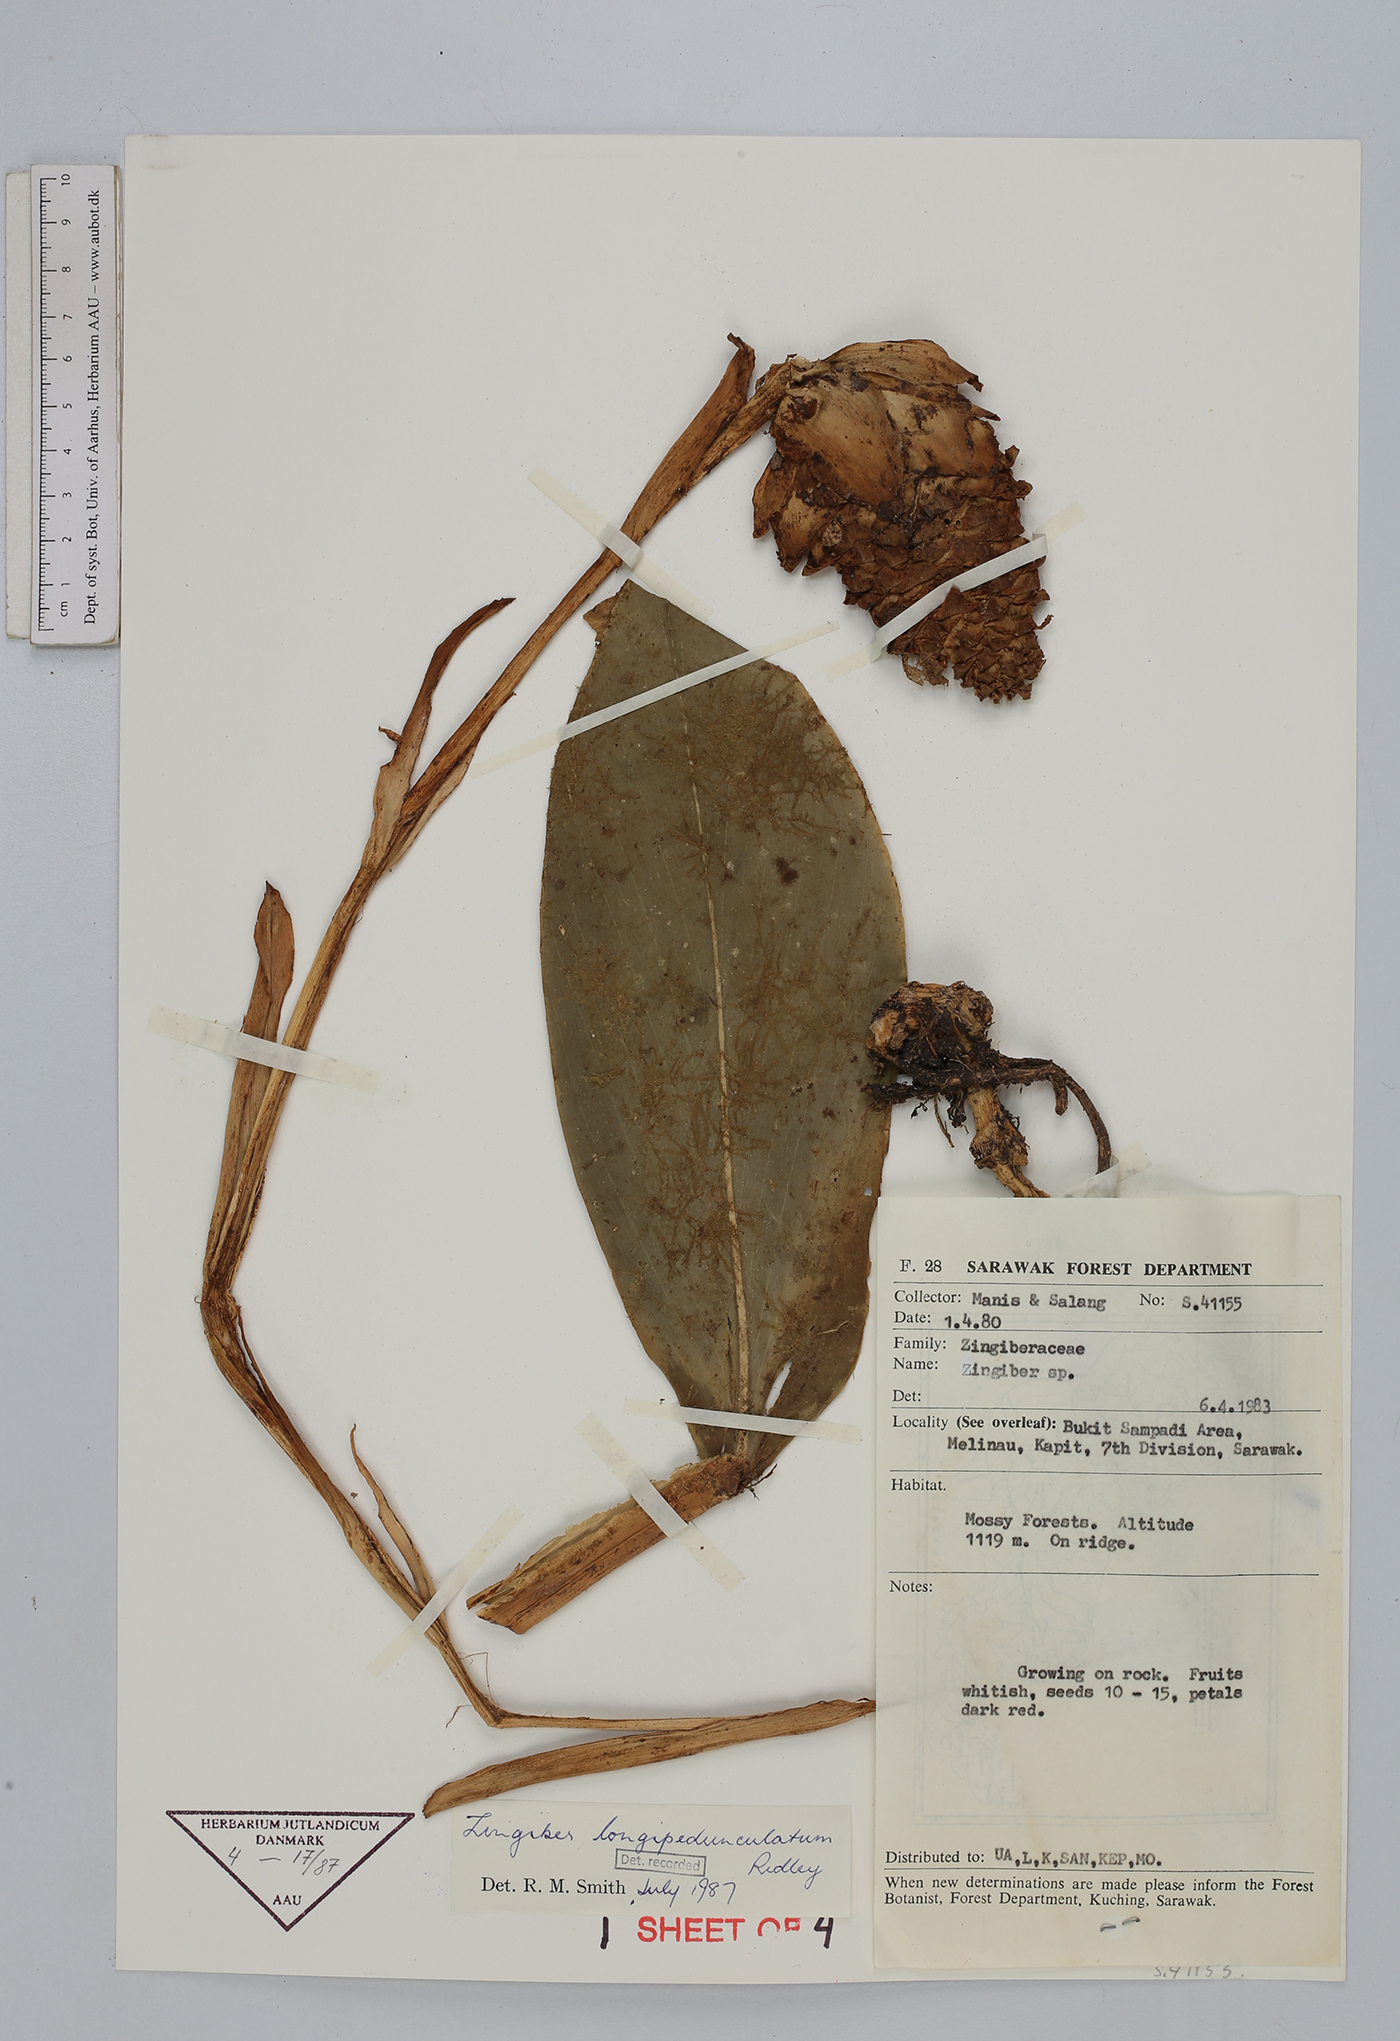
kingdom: Plantae
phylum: Tracheophyta
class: Liliopsida
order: Zingiberales
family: Zingiberaceae
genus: Zingiber
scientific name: Zingiber longipedunculatum
